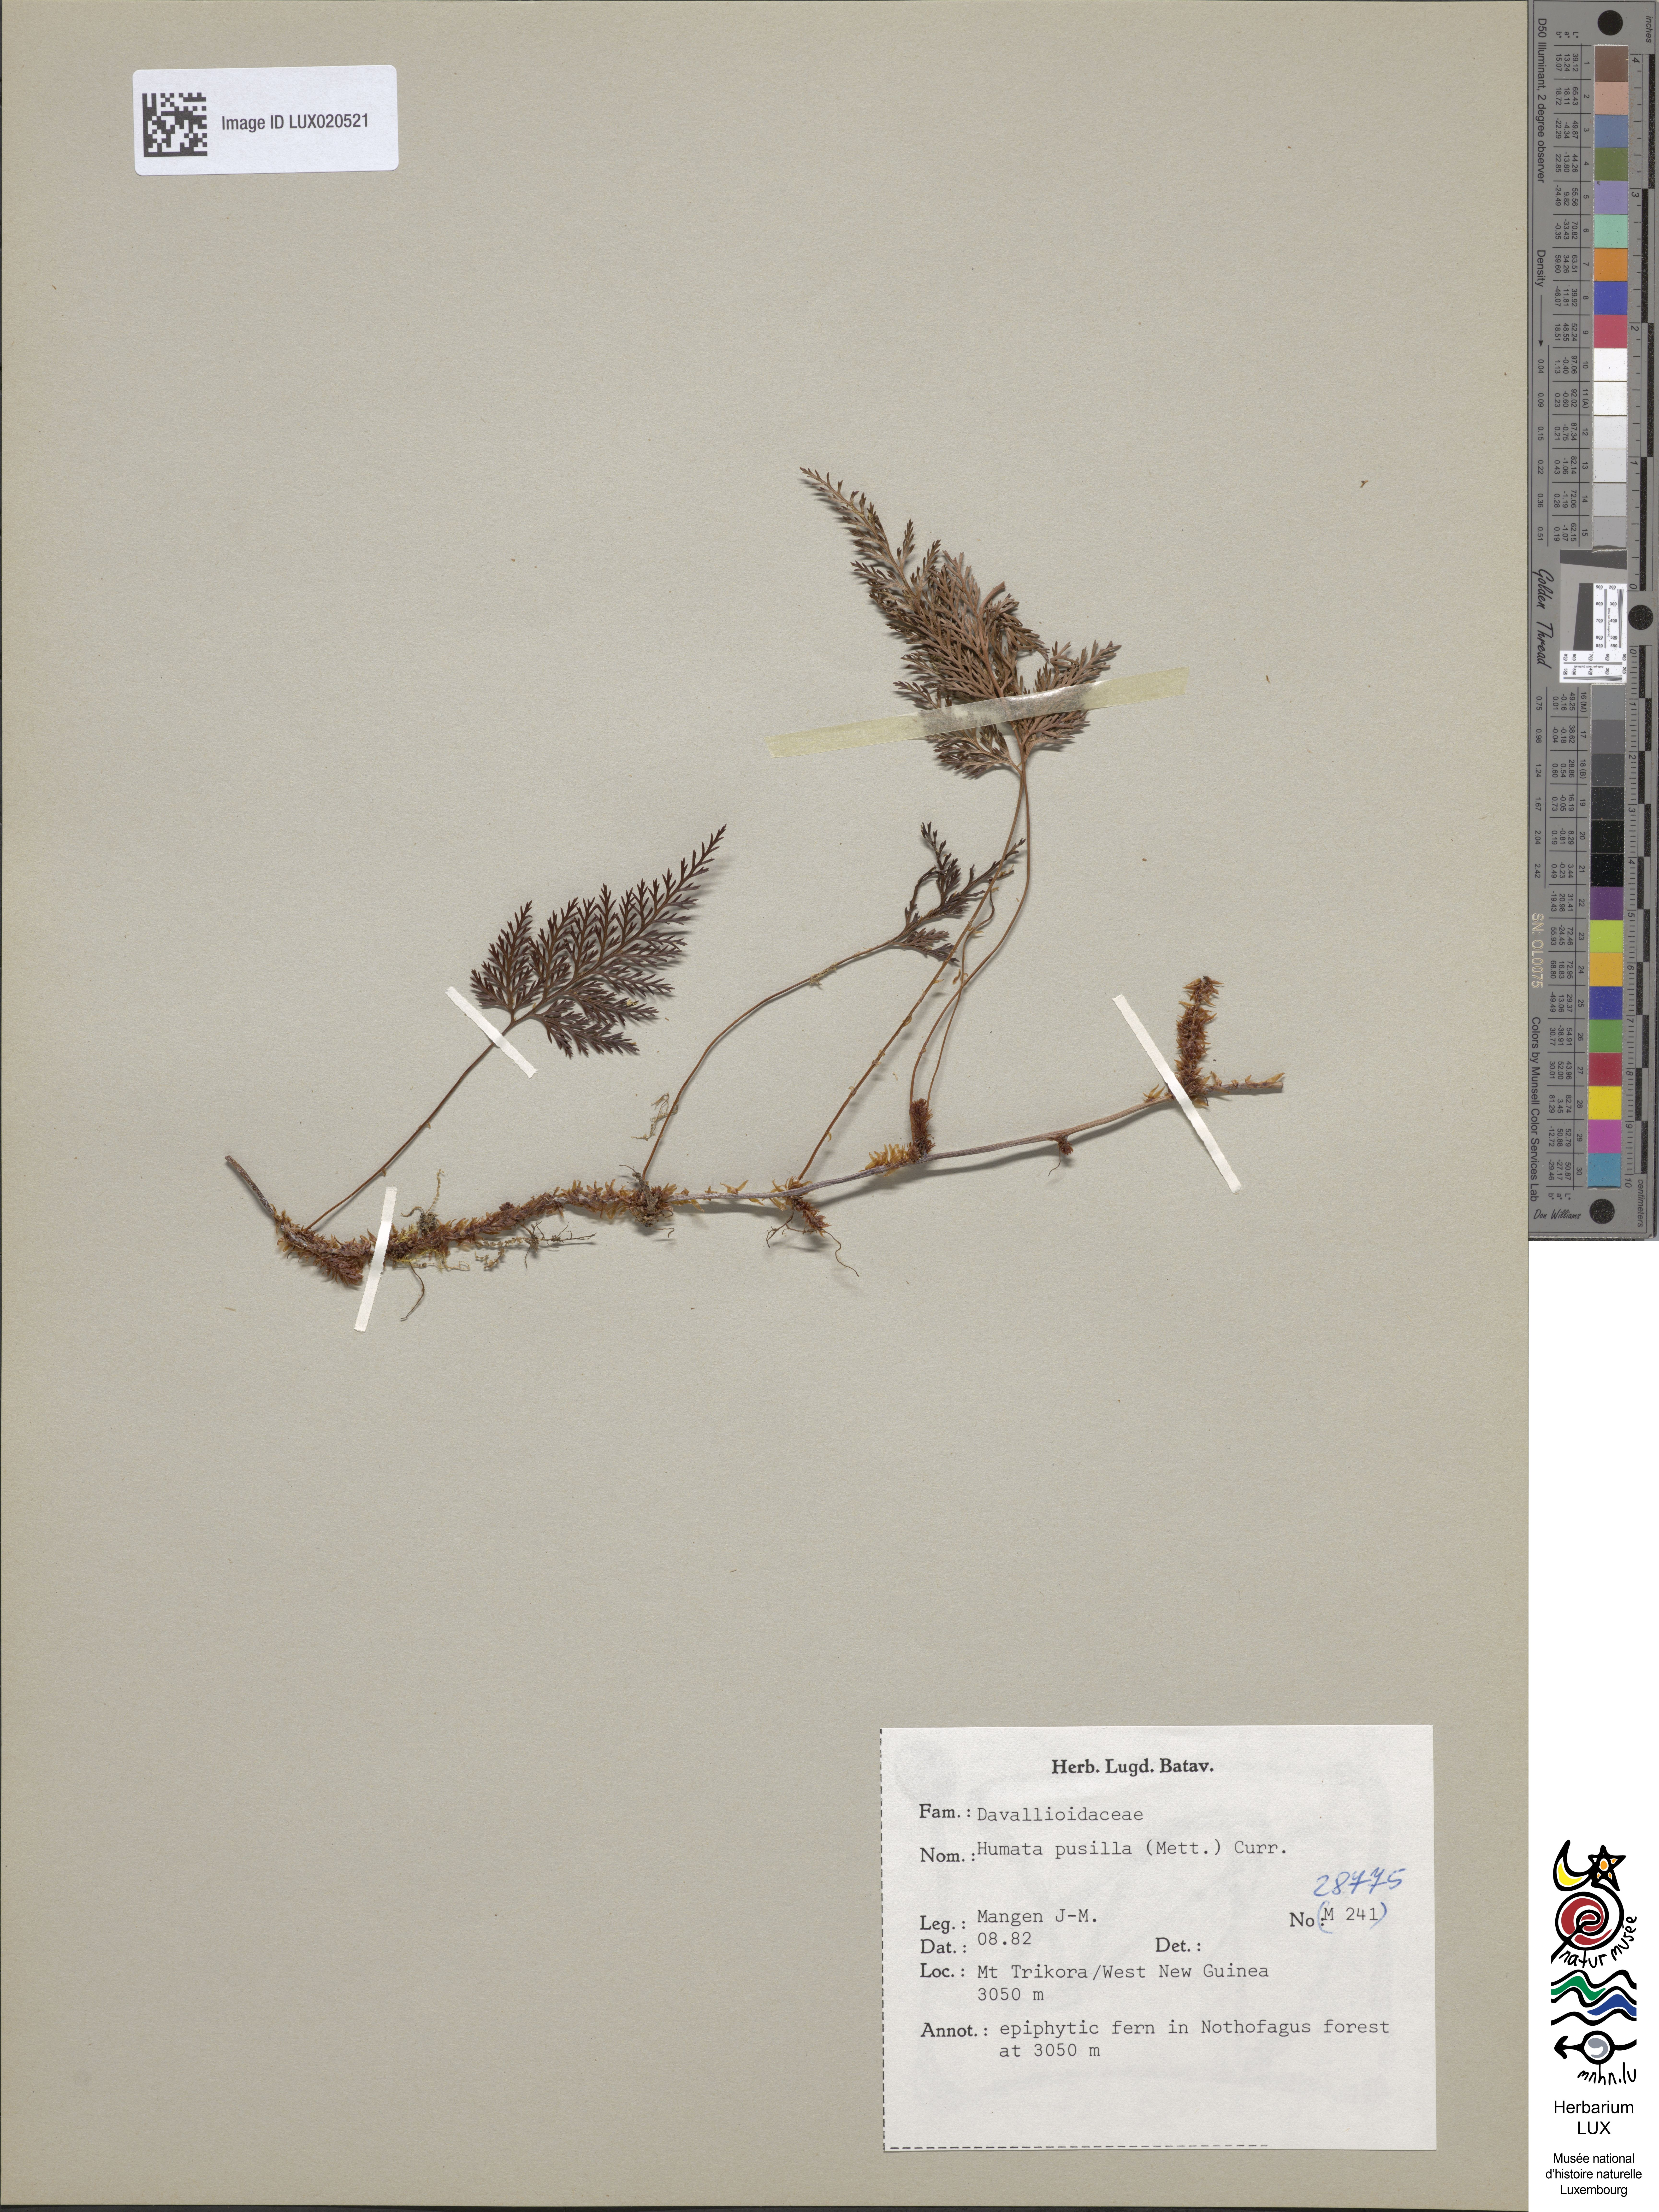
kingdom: Plantae
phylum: Tracheophyta
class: Polypodiopsida
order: Polypodiales
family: Davalliaceae
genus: Davallia
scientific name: Davallia pusilla
